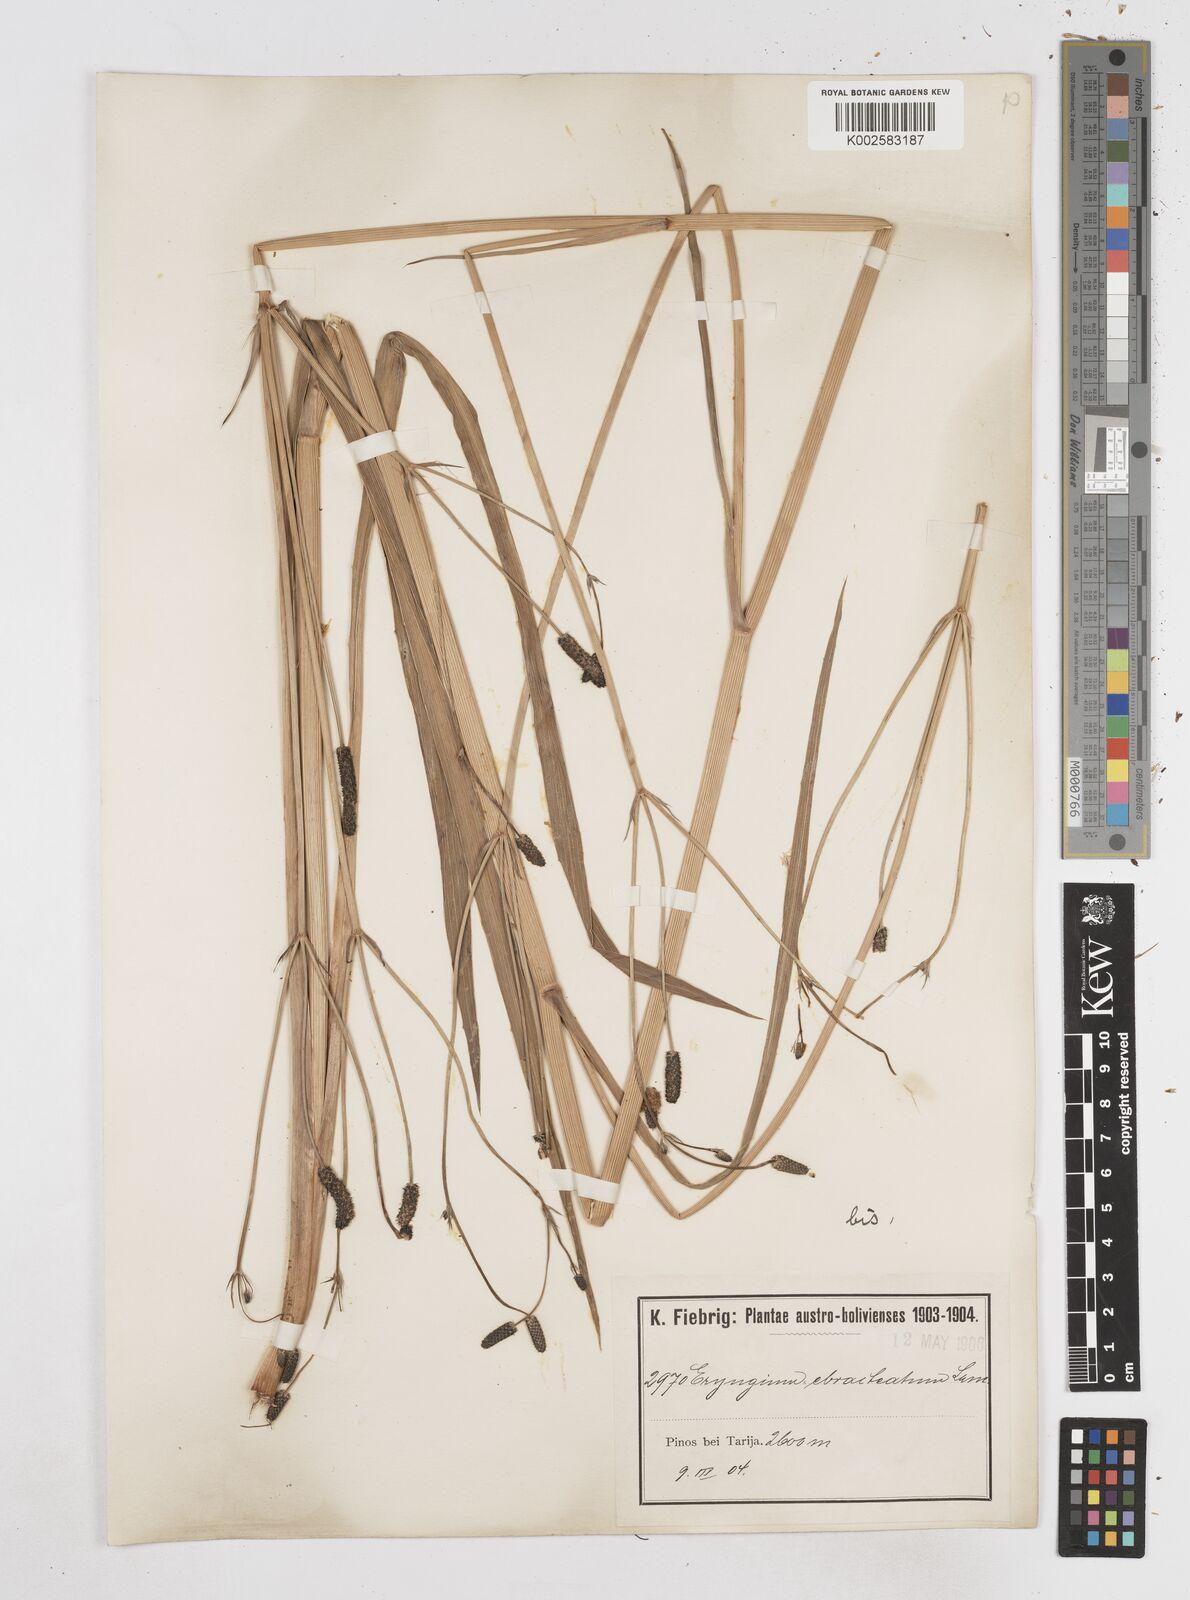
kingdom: Plantae
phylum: Tracheophyta
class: Magnoliopsida
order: Apiales
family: Apiaceae
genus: Eryngium
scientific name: Eryngium ebracteatum
